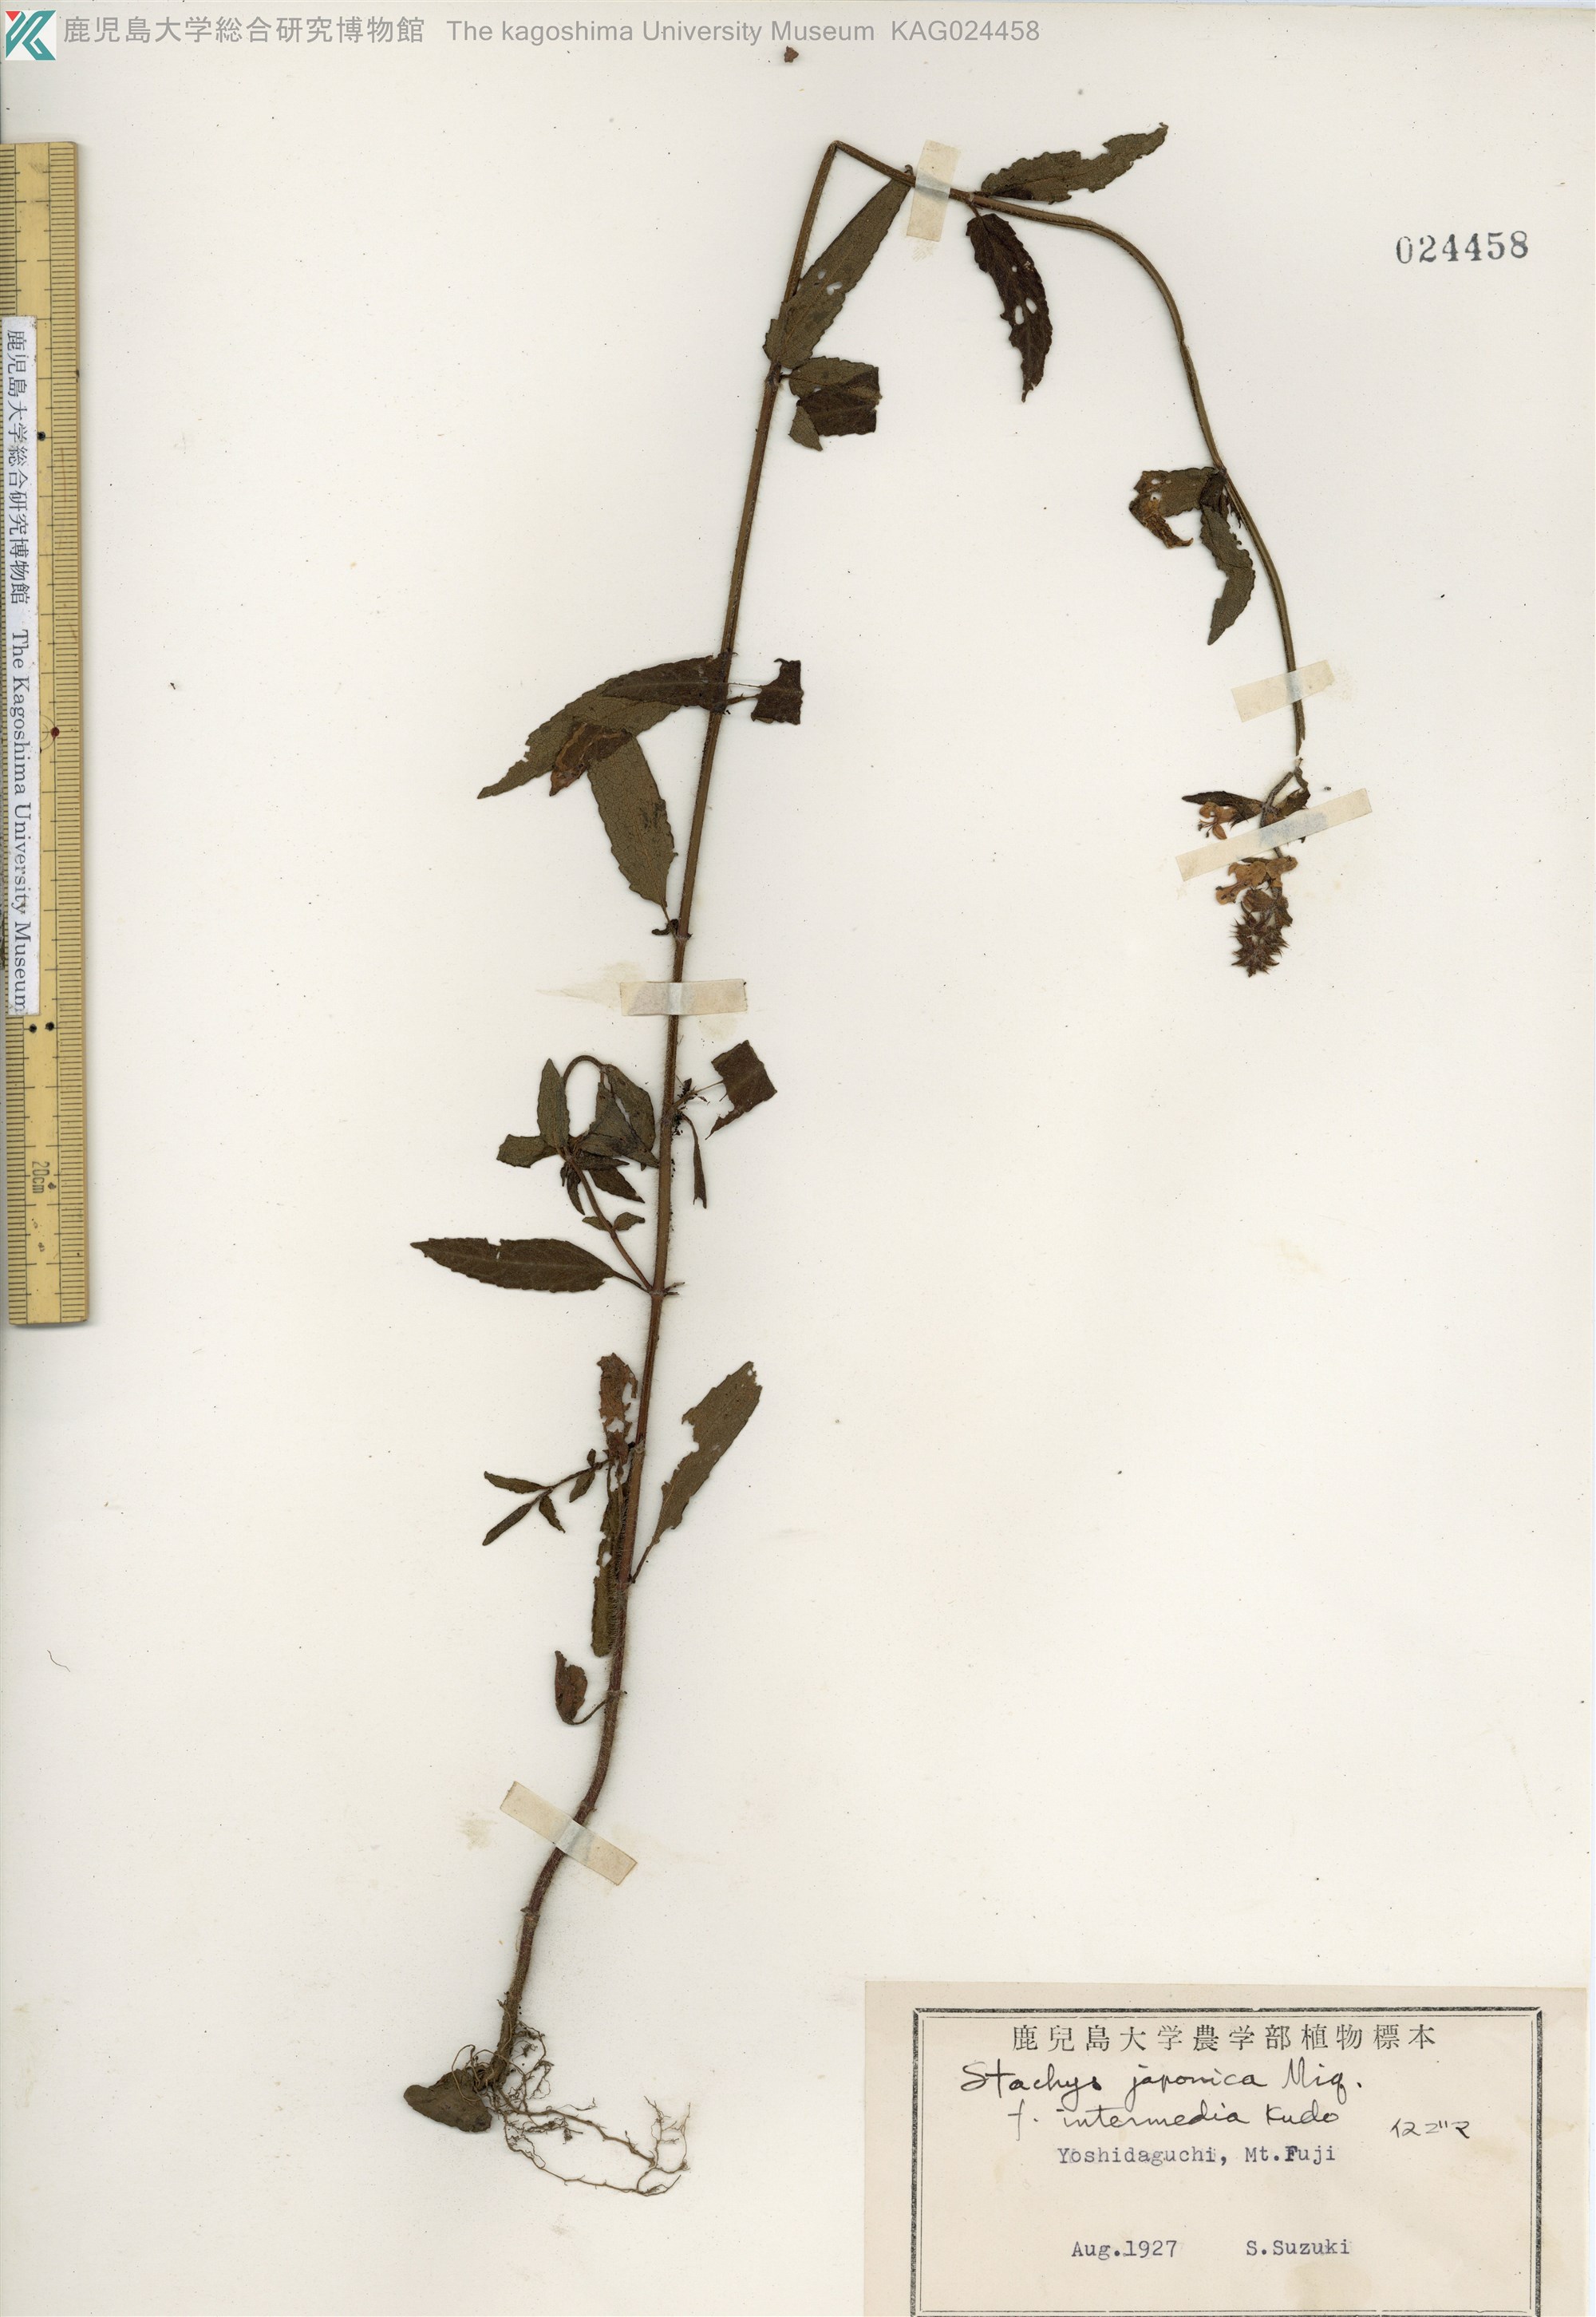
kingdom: Plantae
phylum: Tracheophyta
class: Magnoliopsida
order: Lamiales
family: Lamiaceae
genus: Stachys
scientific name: Stachys aspera
